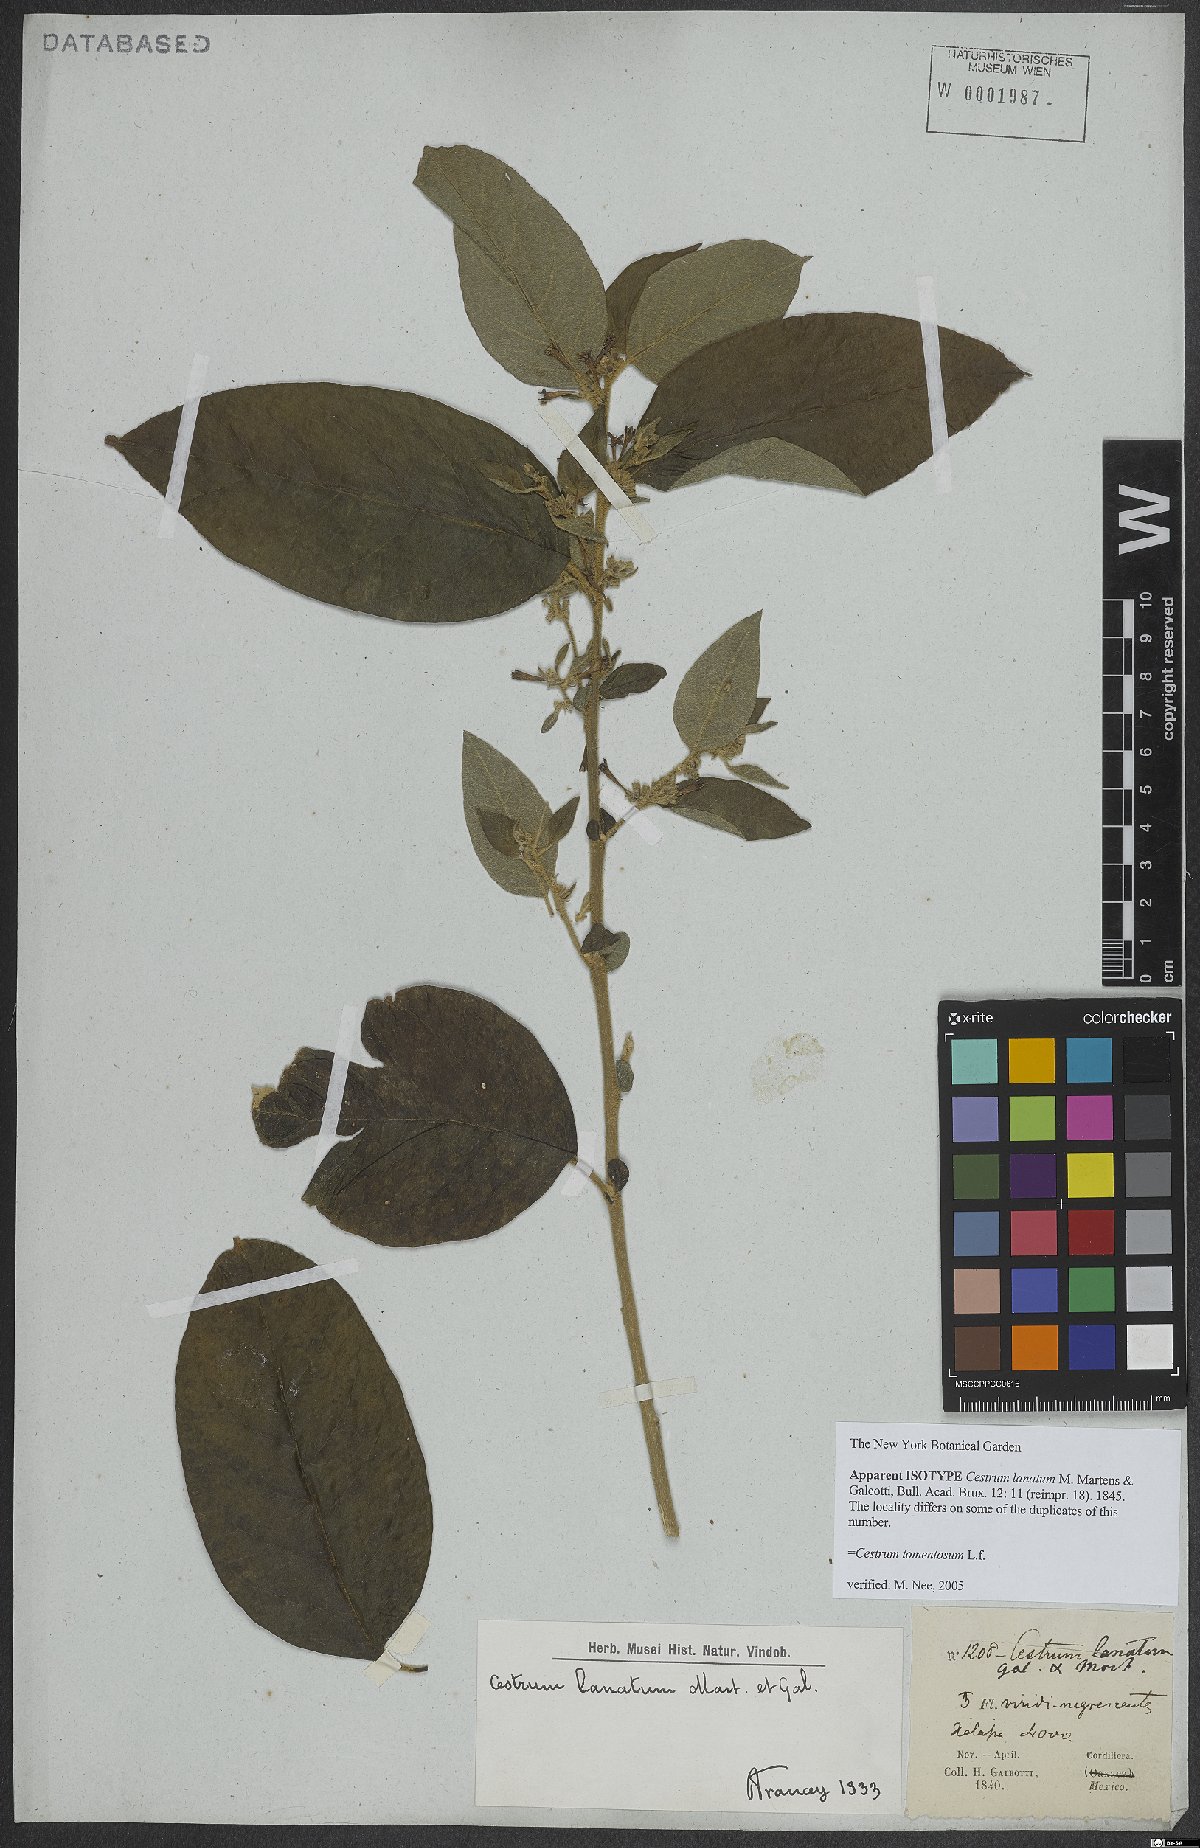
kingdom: Plantae
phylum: Tracheophyta
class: Magnoliopsida
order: Solanales
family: Solanaceae
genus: Cestrum
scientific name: Cestrum tomentosum
